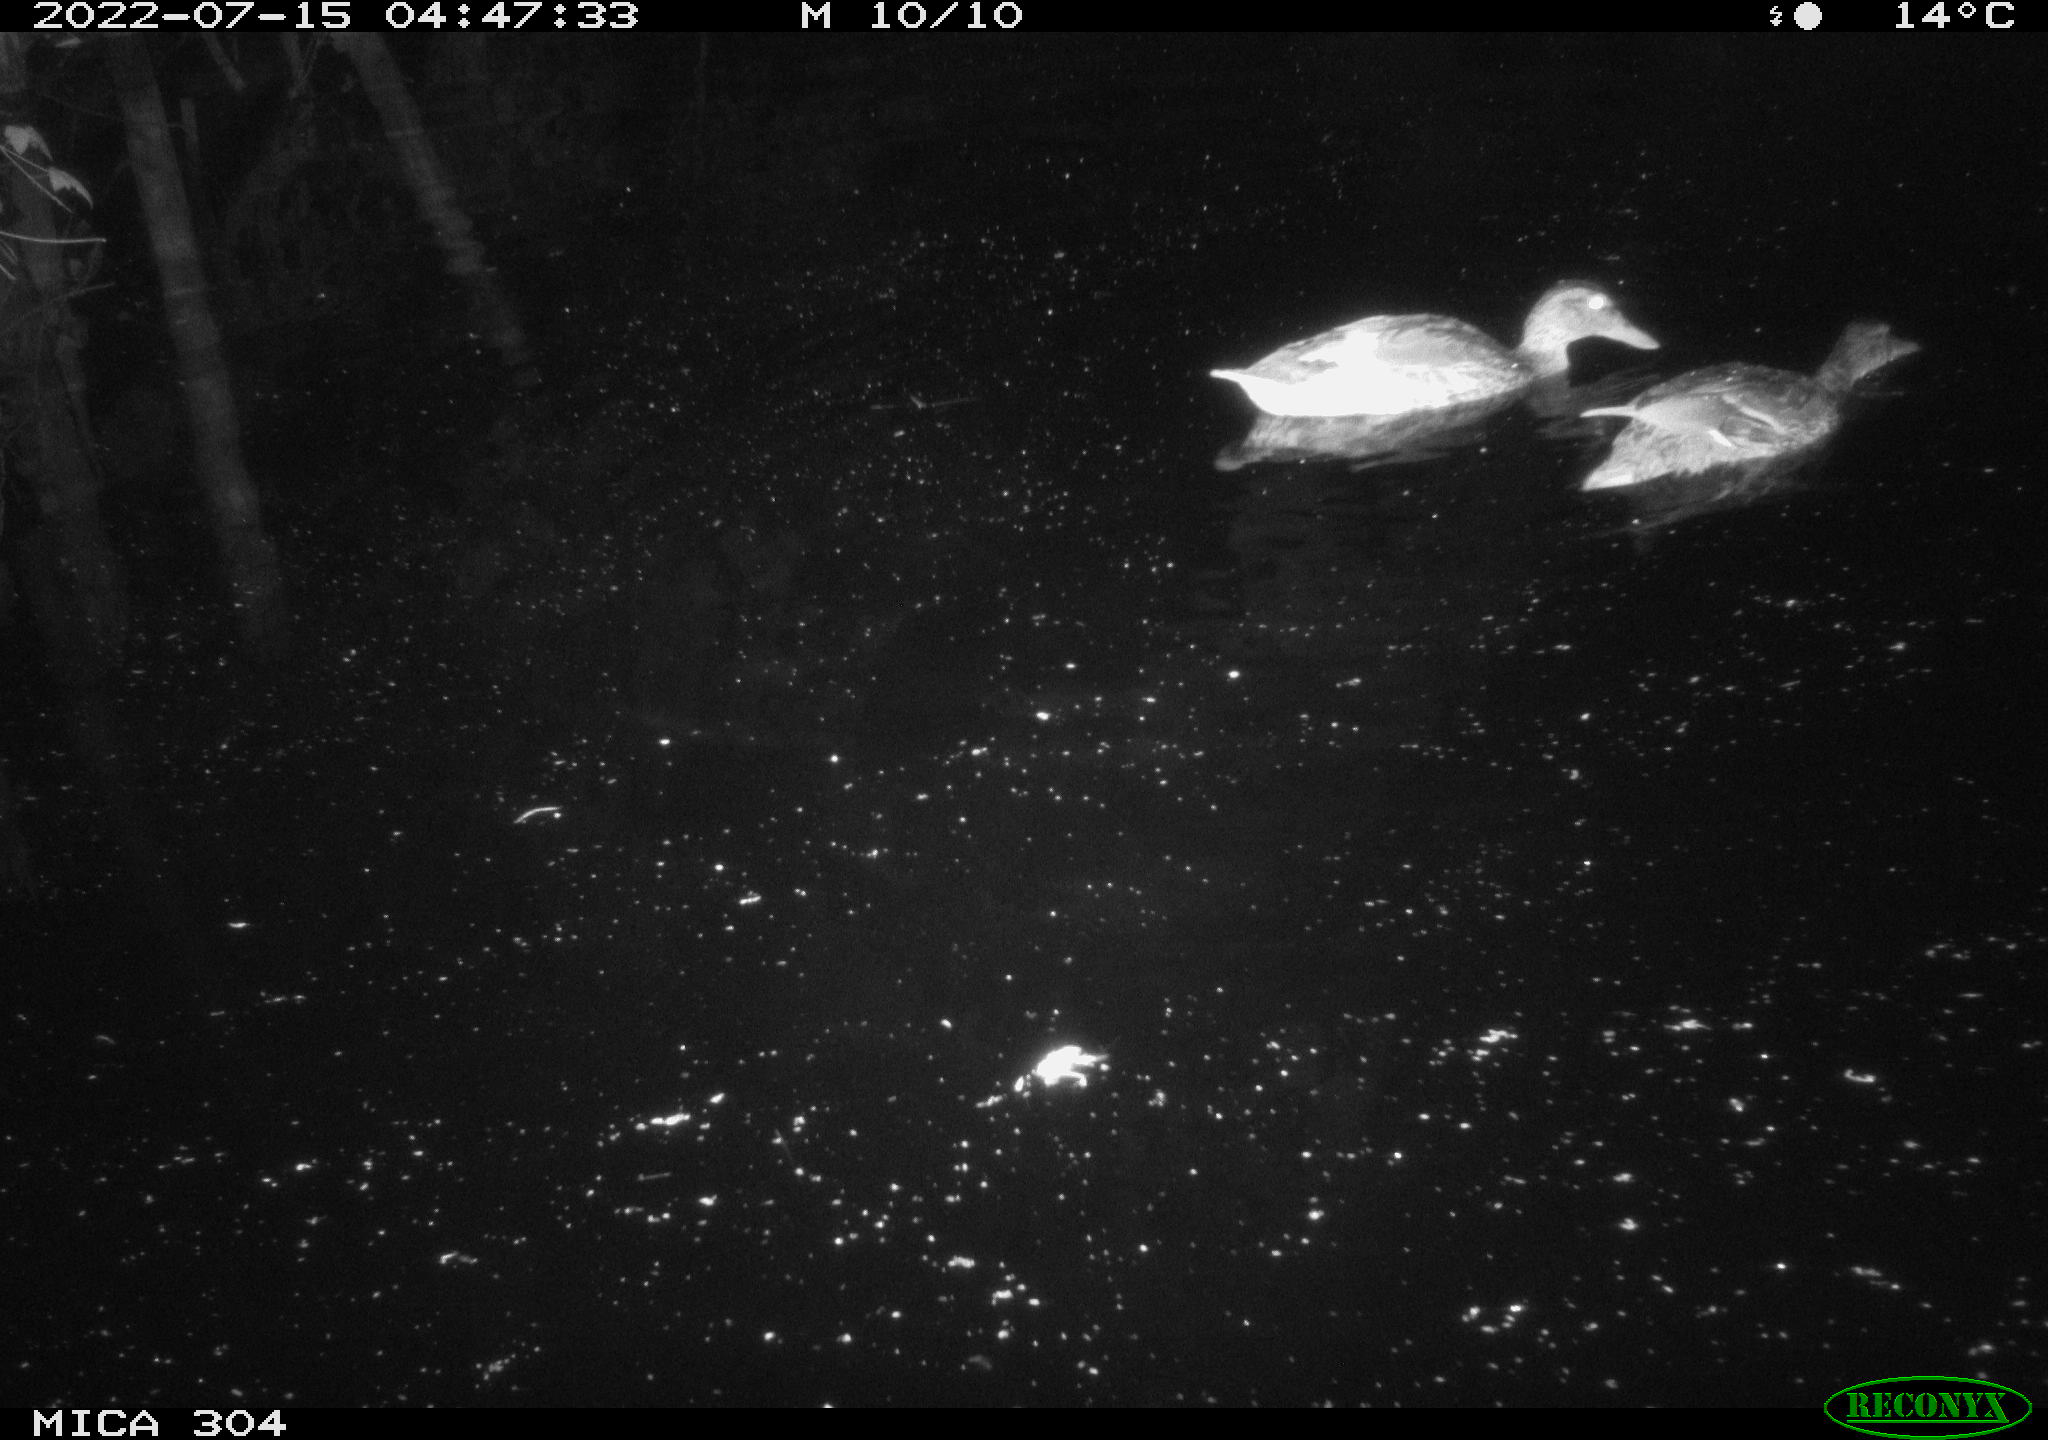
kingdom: Animalia
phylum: Chordata
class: Aves
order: Anseriformes
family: Anatidae
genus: Mareca
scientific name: Mareca strepera
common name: Gadwall
